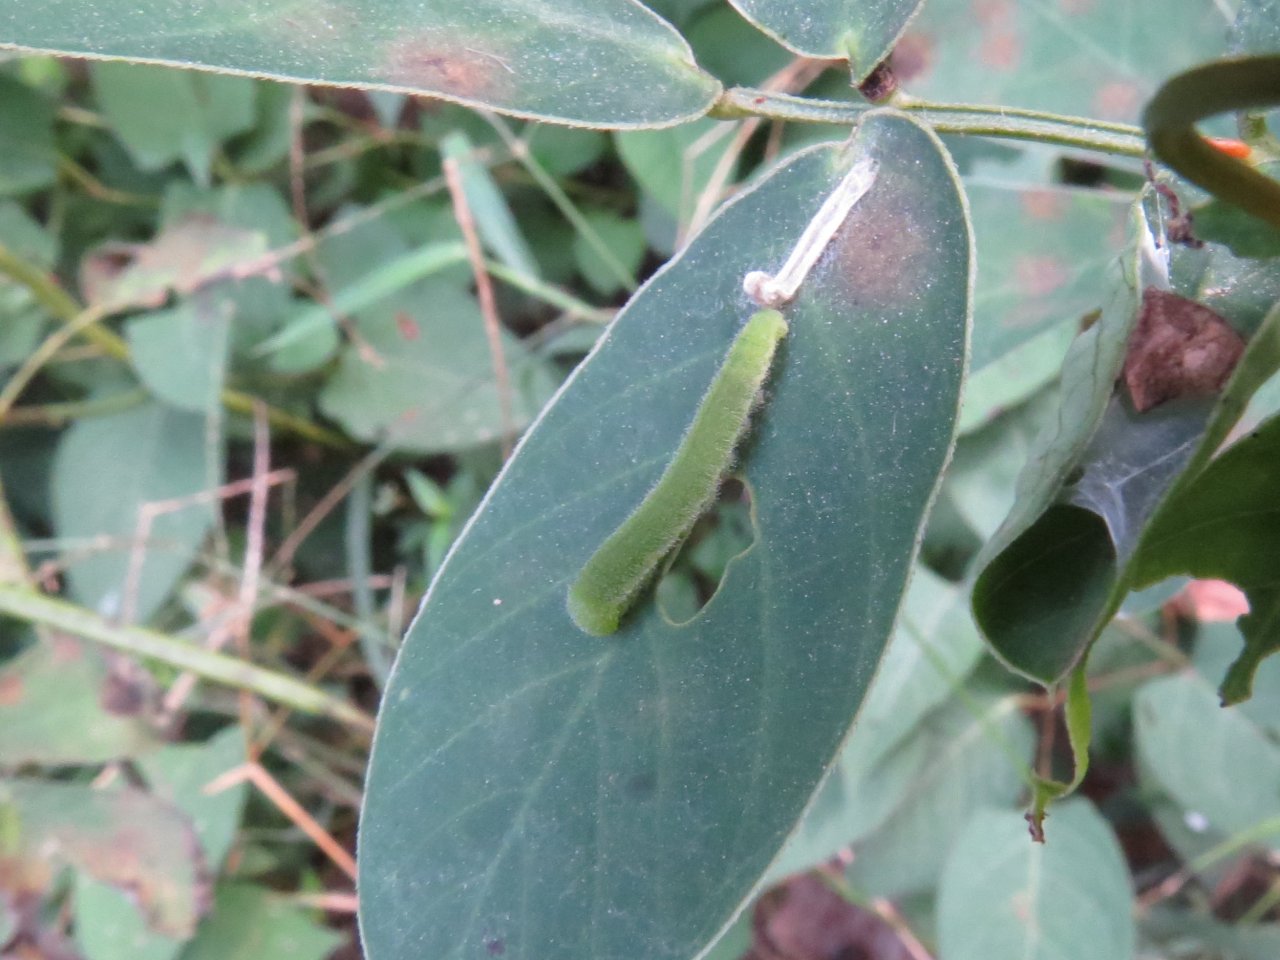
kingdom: Animalia
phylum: Arthropoda
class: Insecta
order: Lepidoptera
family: Pieridae
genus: Abaeis
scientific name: Abaeis nicippe
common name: Sleepy Orange
